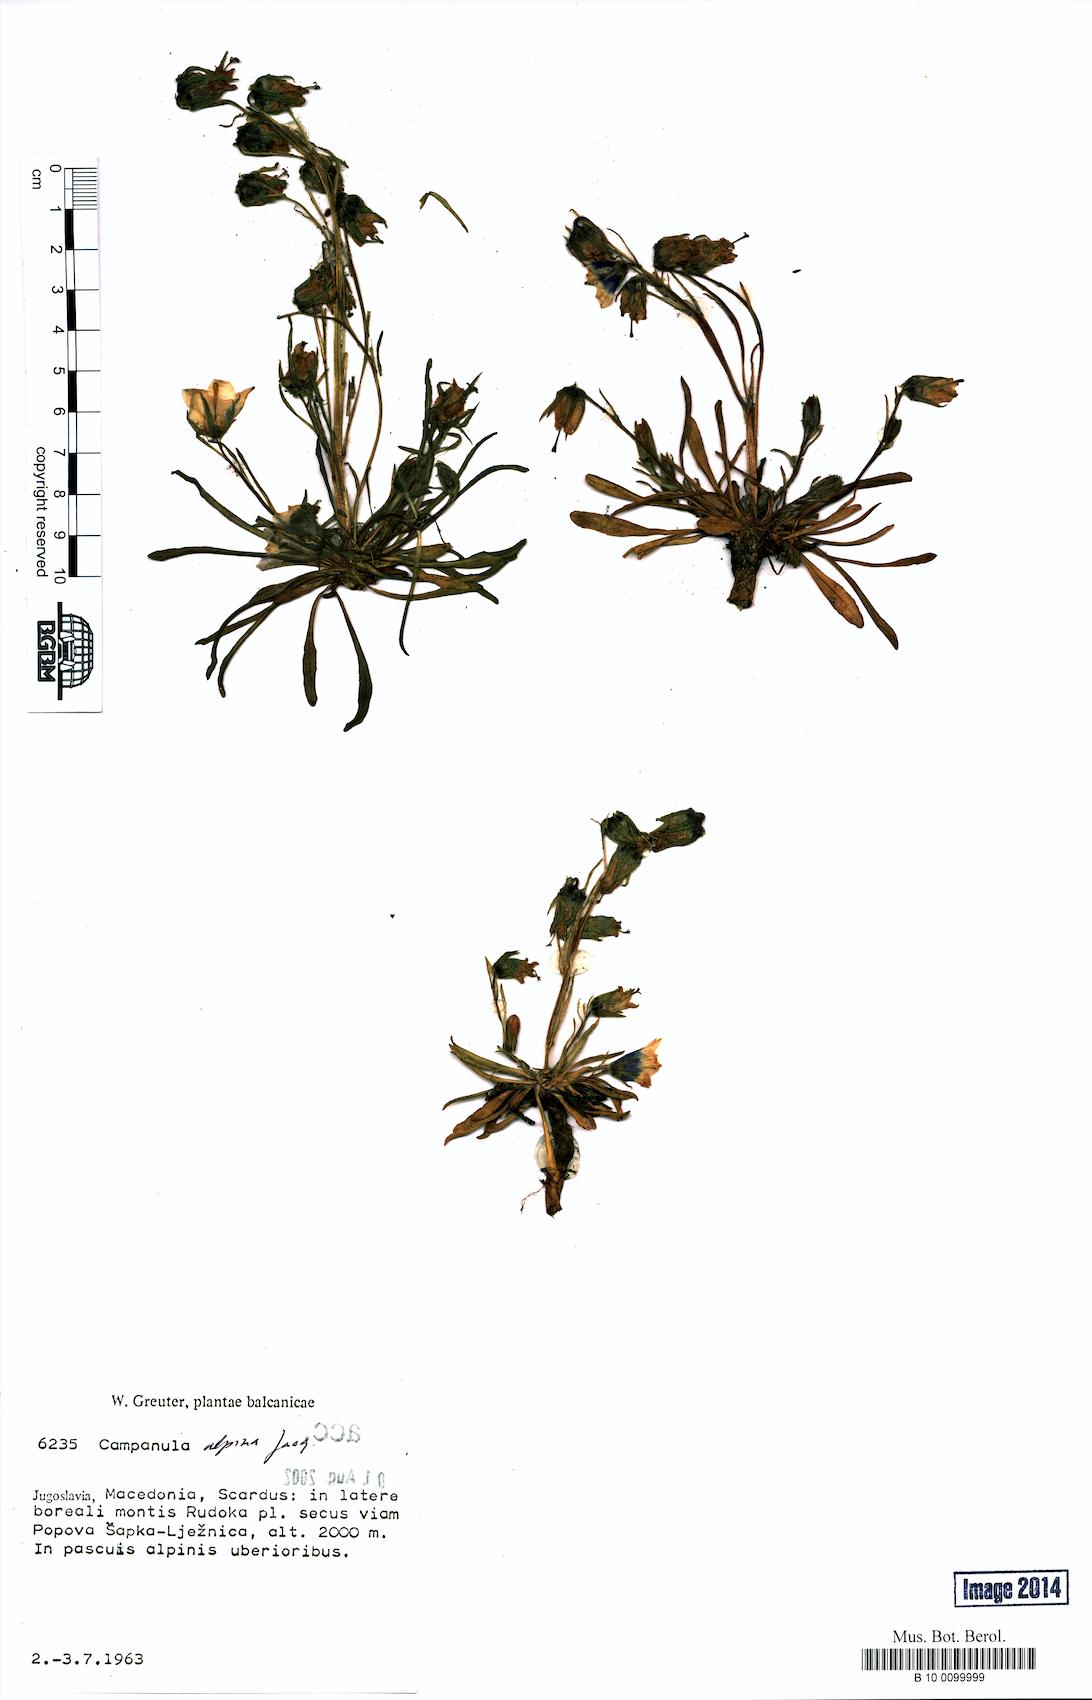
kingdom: Plantae
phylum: Tracheophyta
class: Magnoliopsida
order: Asterales
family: Campanulaceae
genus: Campanula
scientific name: Campanula alpina
